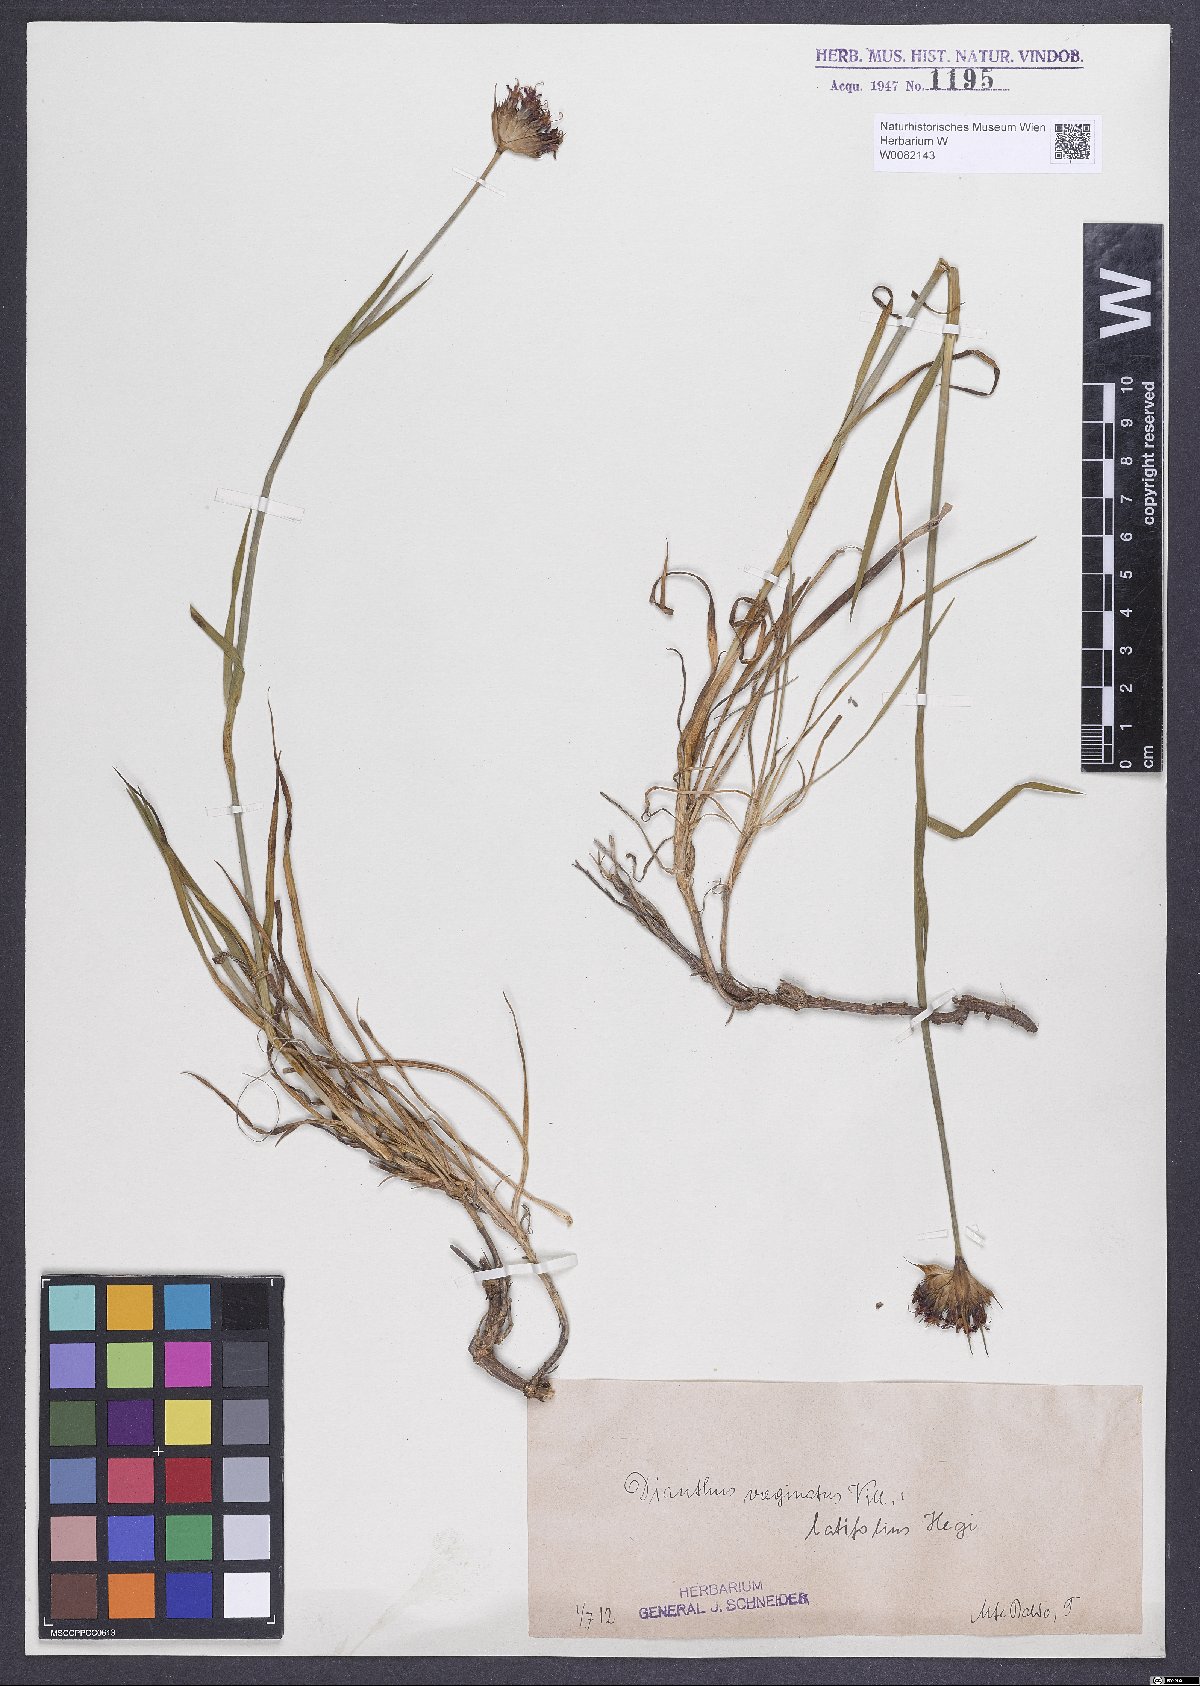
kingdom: Plantae
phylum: Tracheophyta
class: Magnoliopsida
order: Caryophyllales
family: Caryophyllaceae
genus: Dianthus
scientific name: Dianthus carthusianorum
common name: Carthusian pink
